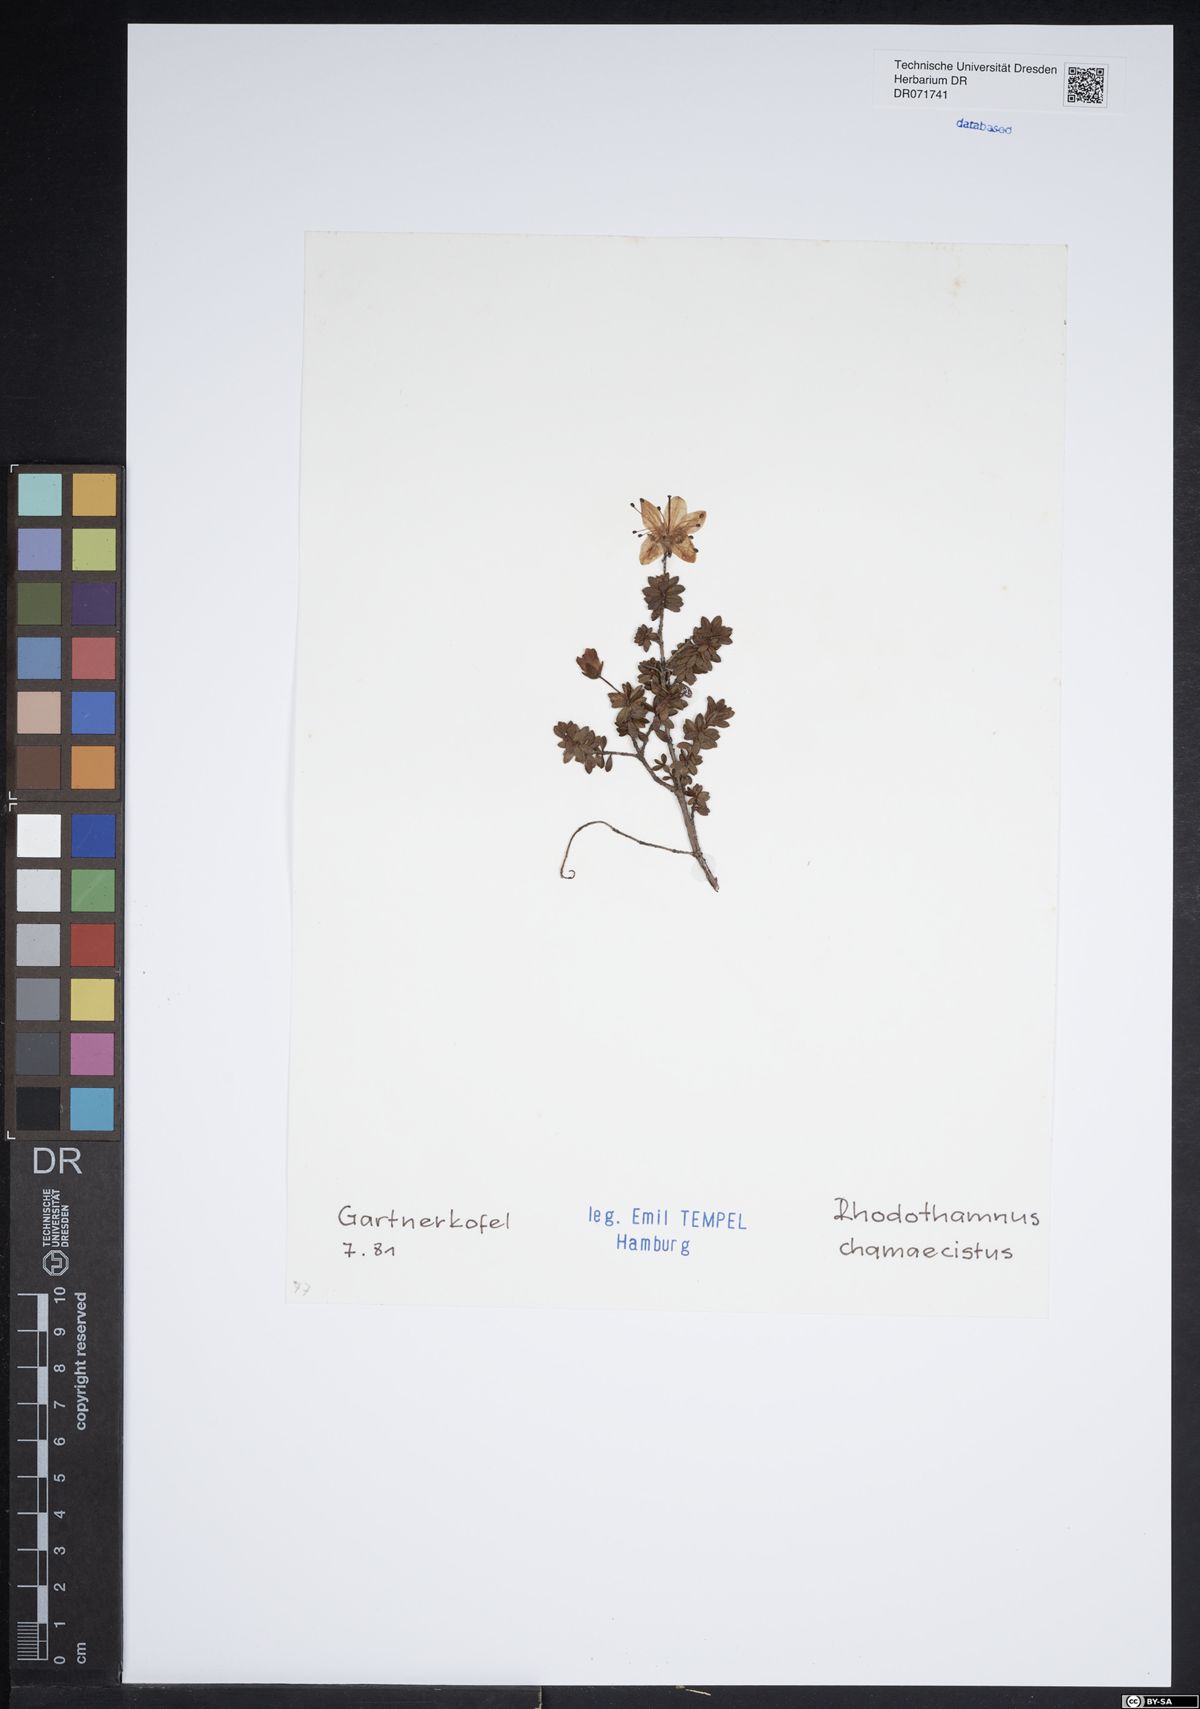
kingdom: Plantae
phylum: Tracheophyta
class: Magnoliopsida
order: Ericales
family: Ericaceae
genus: Rhodothamnus
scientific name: Rhodothamnus chamaecistus
